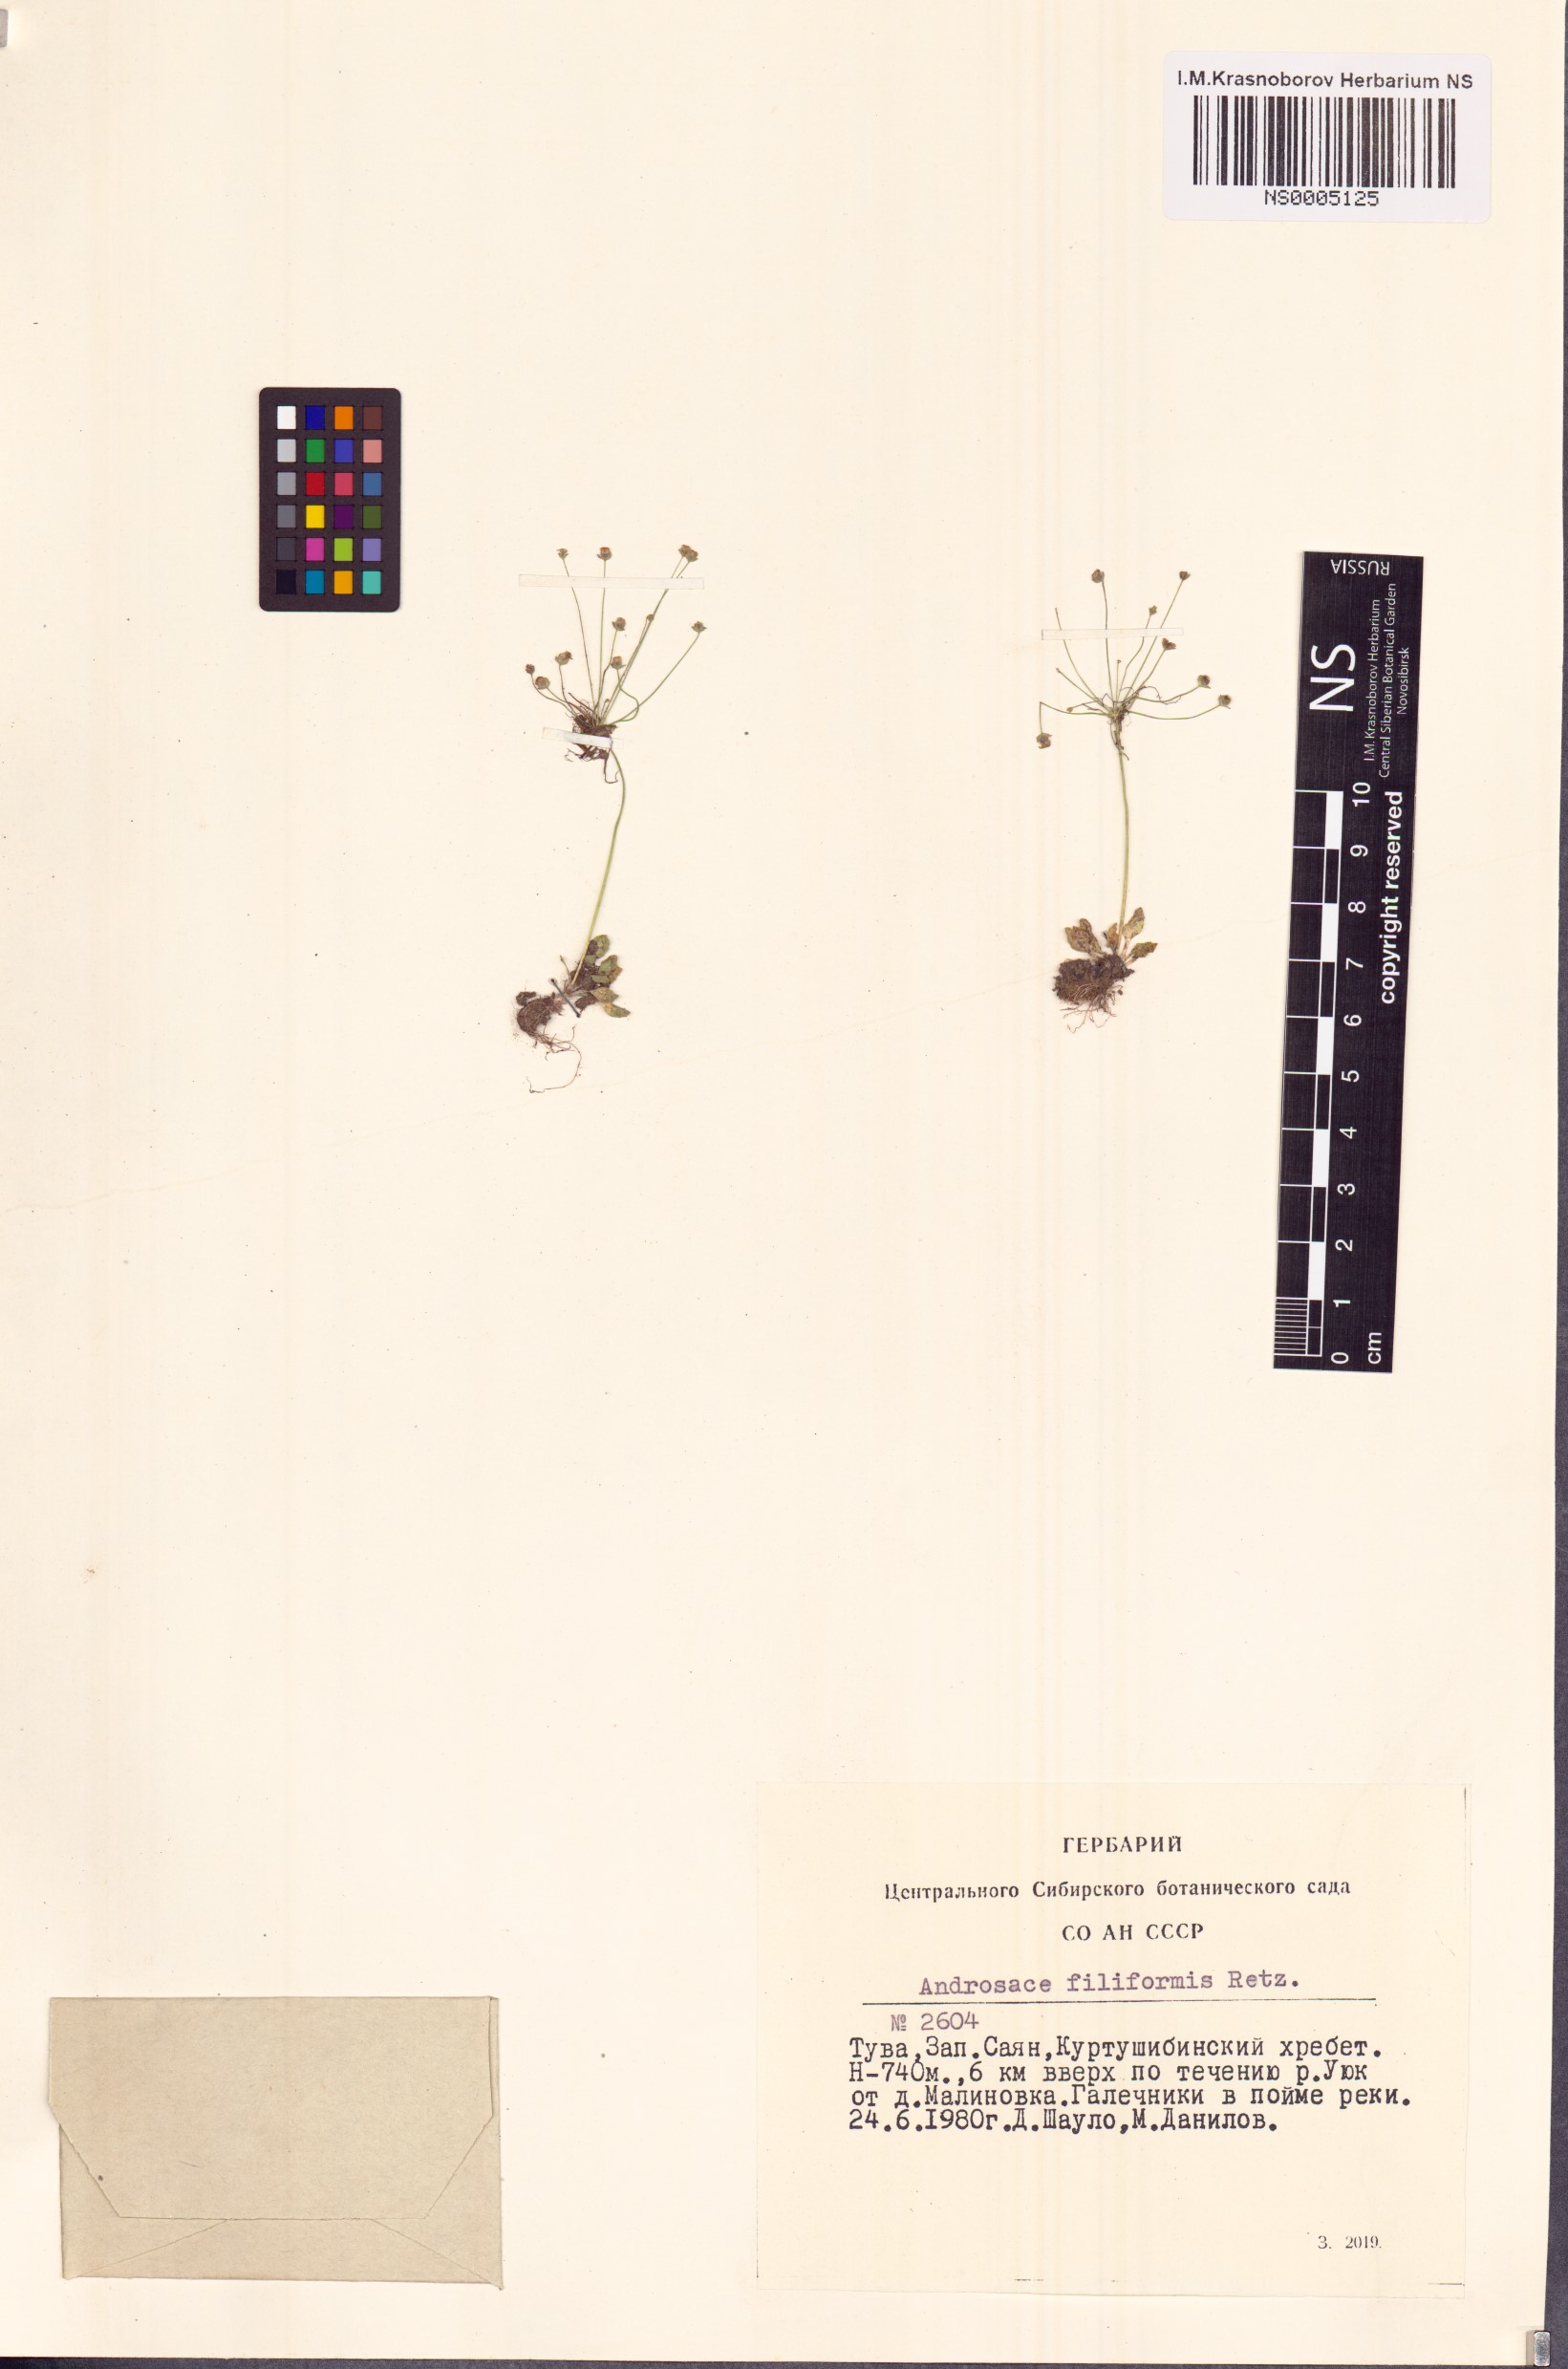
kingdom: Plantae
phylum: Tracheophyta
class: Magnoliopsida
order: Ericales
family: Primulaceae
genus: Androsace
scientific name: Androsace filiformis
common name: Filiform rock jasmine
